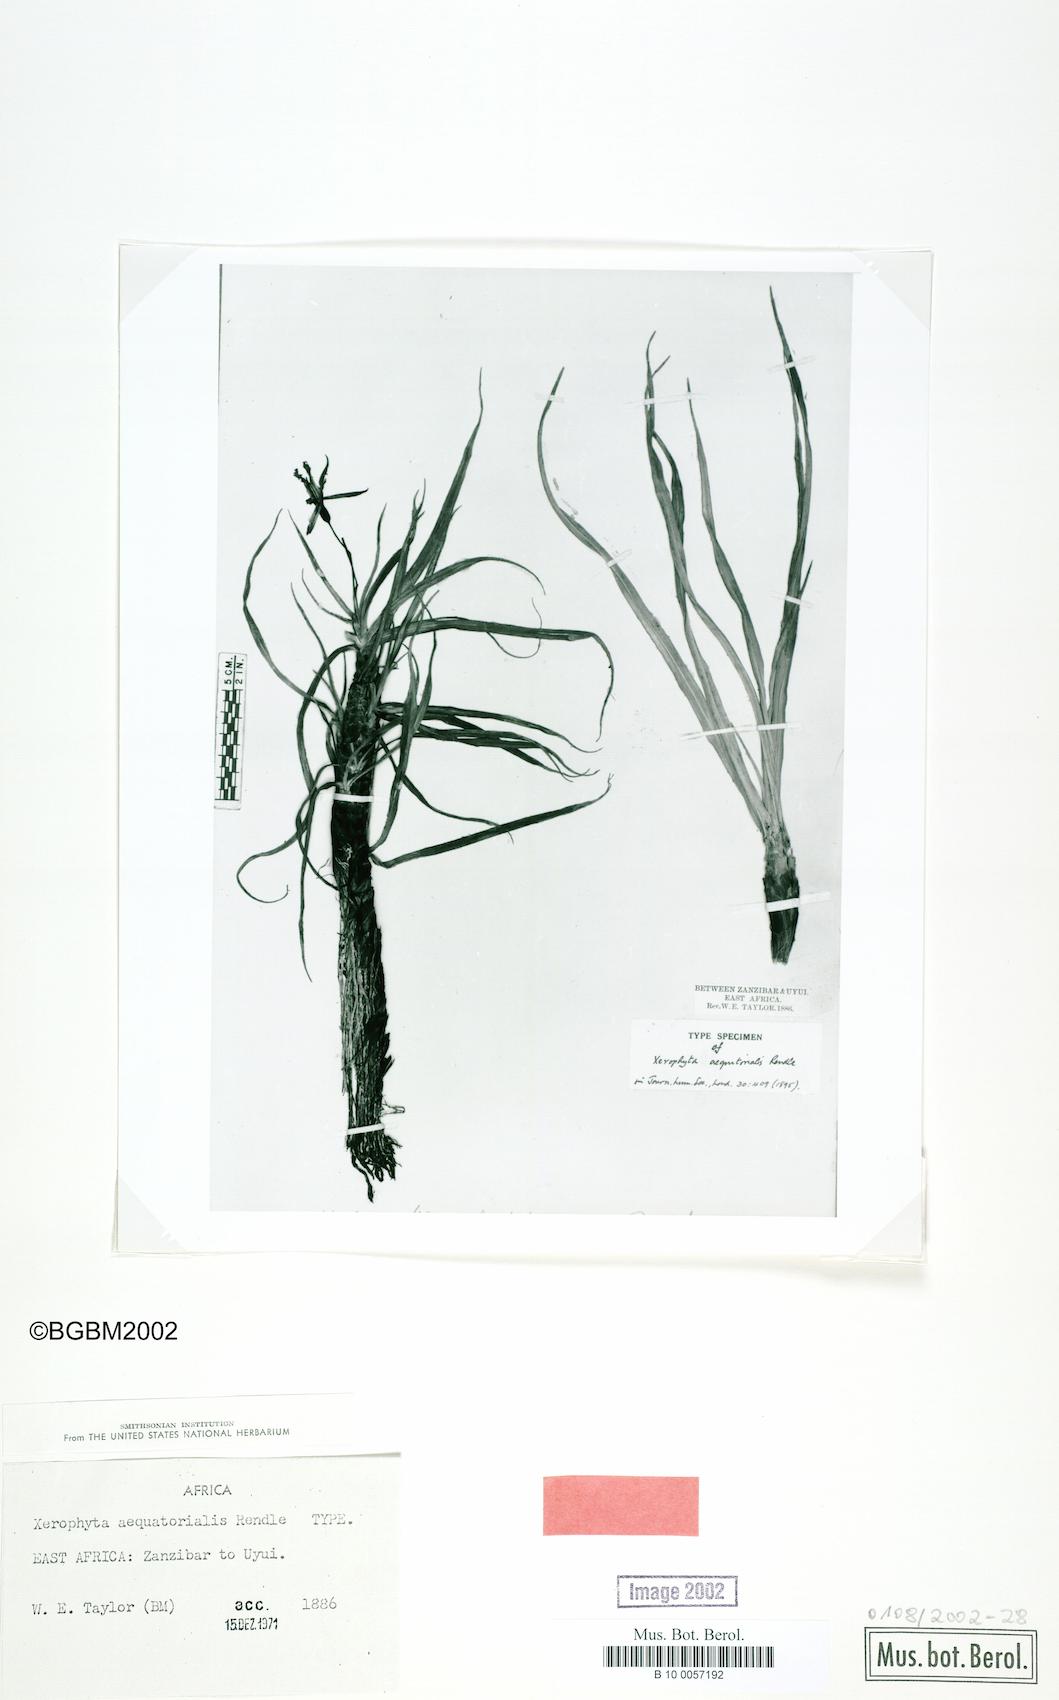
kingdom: Plantae
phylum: Tracheophyta
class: Liliopsida
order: Pandanales
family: Velloziaceae
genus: Xerophyta
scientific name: Xerophyta spekei
